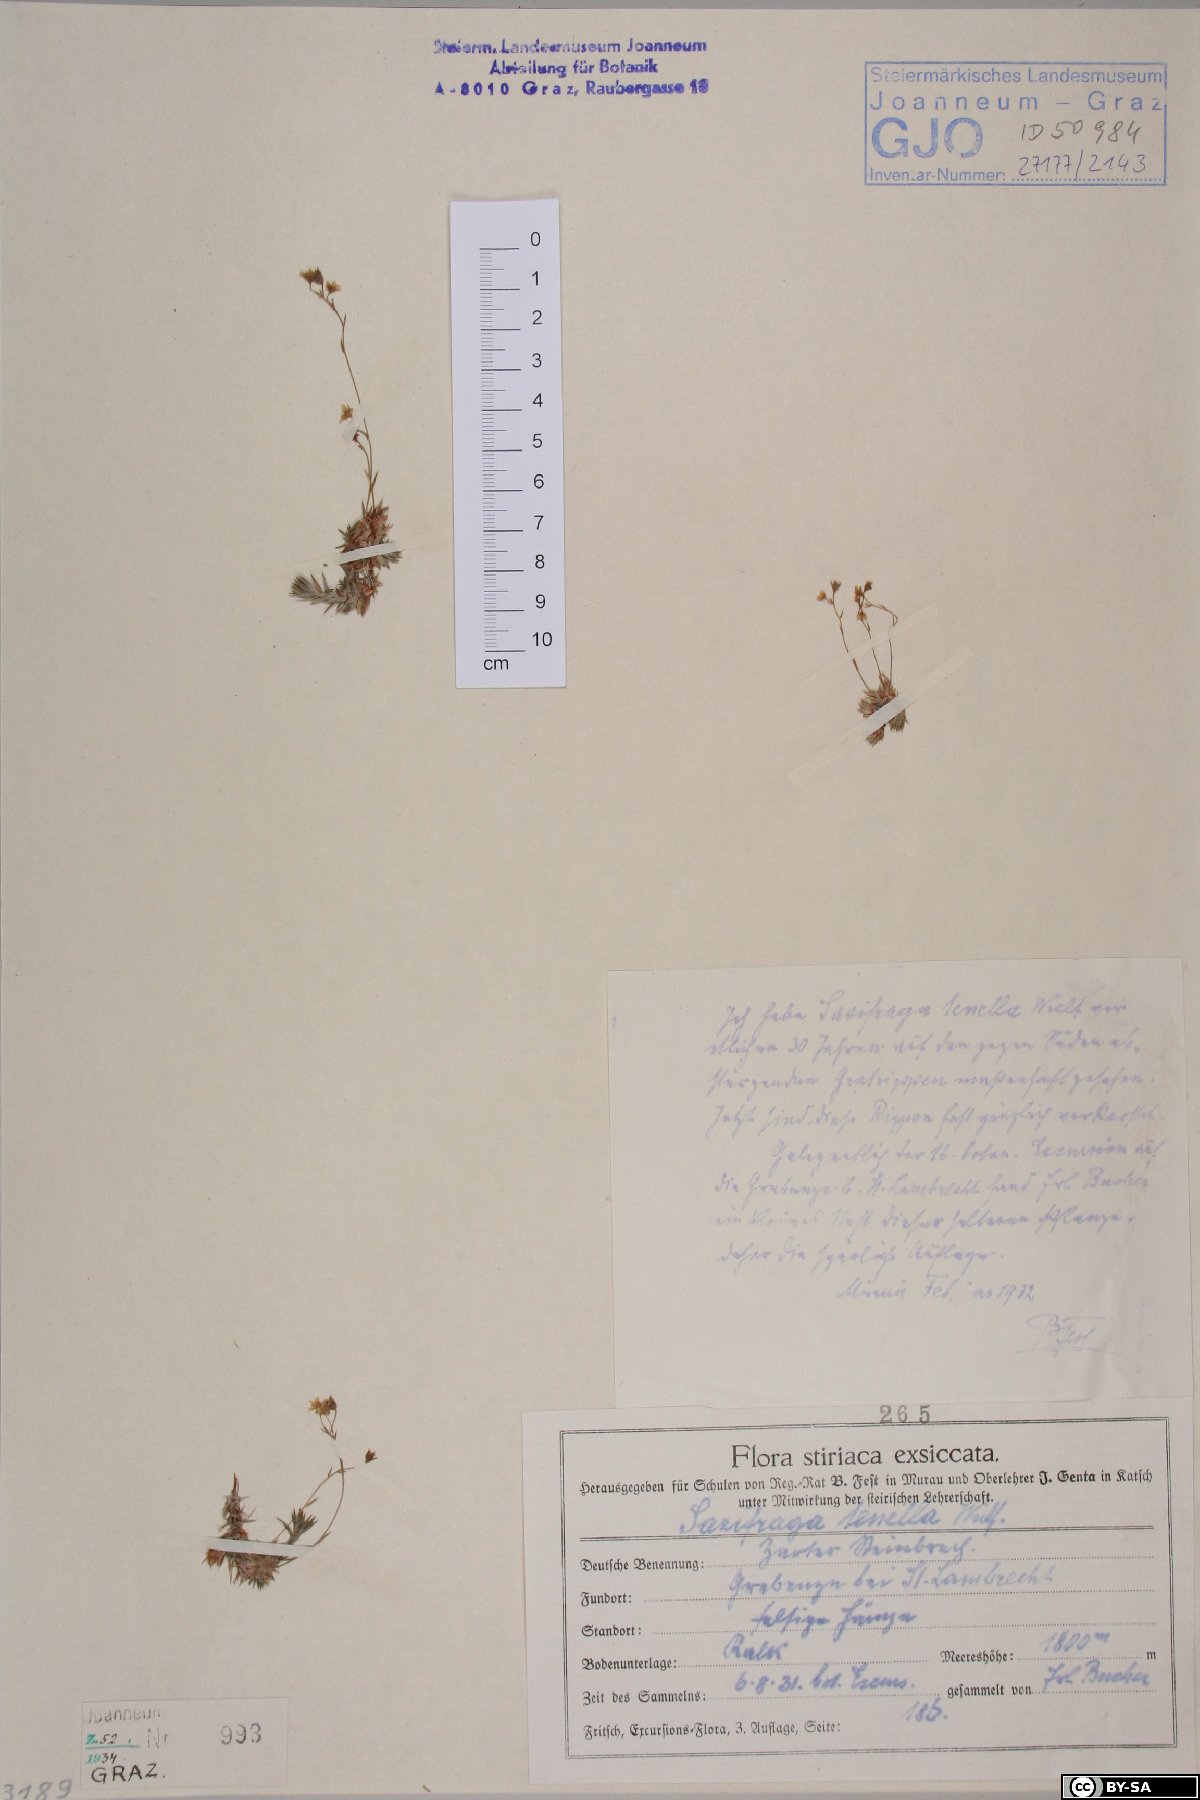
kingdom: Plantae
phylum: Tracheophyta
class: Magnoliopsida
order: Saxifragales
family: Saxifragaceae
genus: Saxifraga
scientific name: Saxifraga tenella
